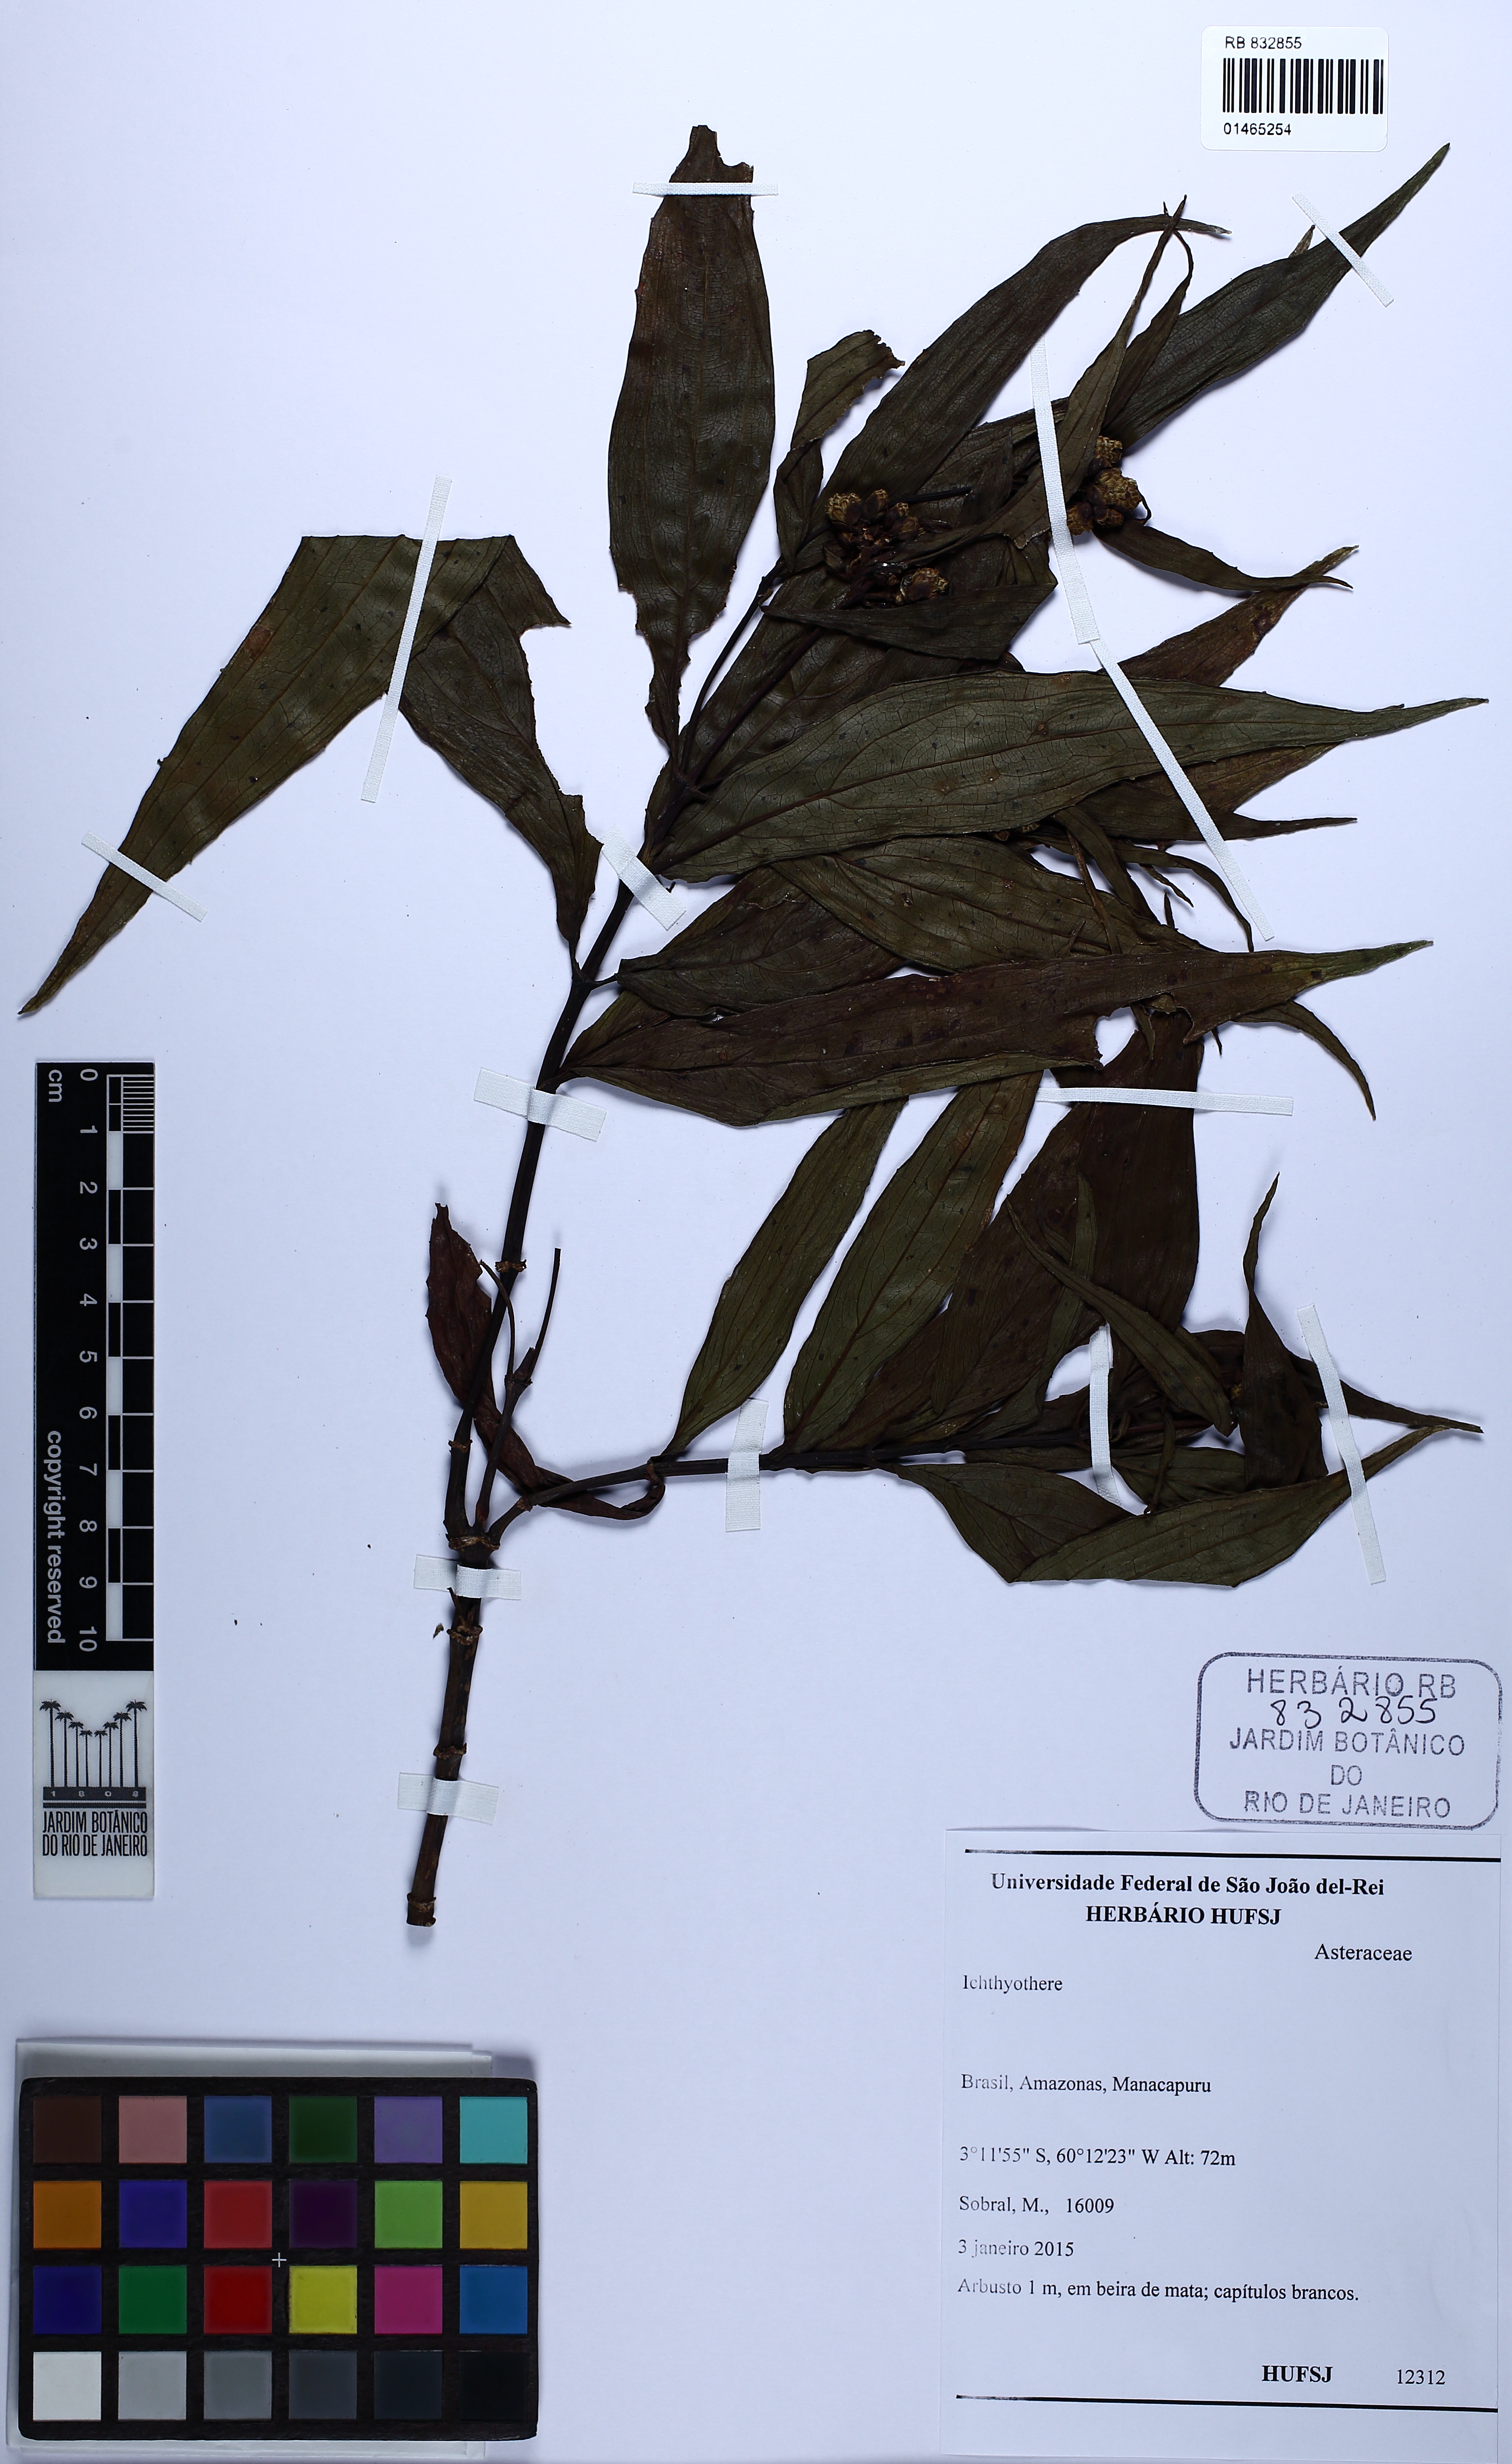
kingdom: Plantae
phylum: Tracheophyta
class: Magnoliopsida
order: Asterales
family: Asteraceae
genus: Ichthyothere
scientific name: Ichthyothere
